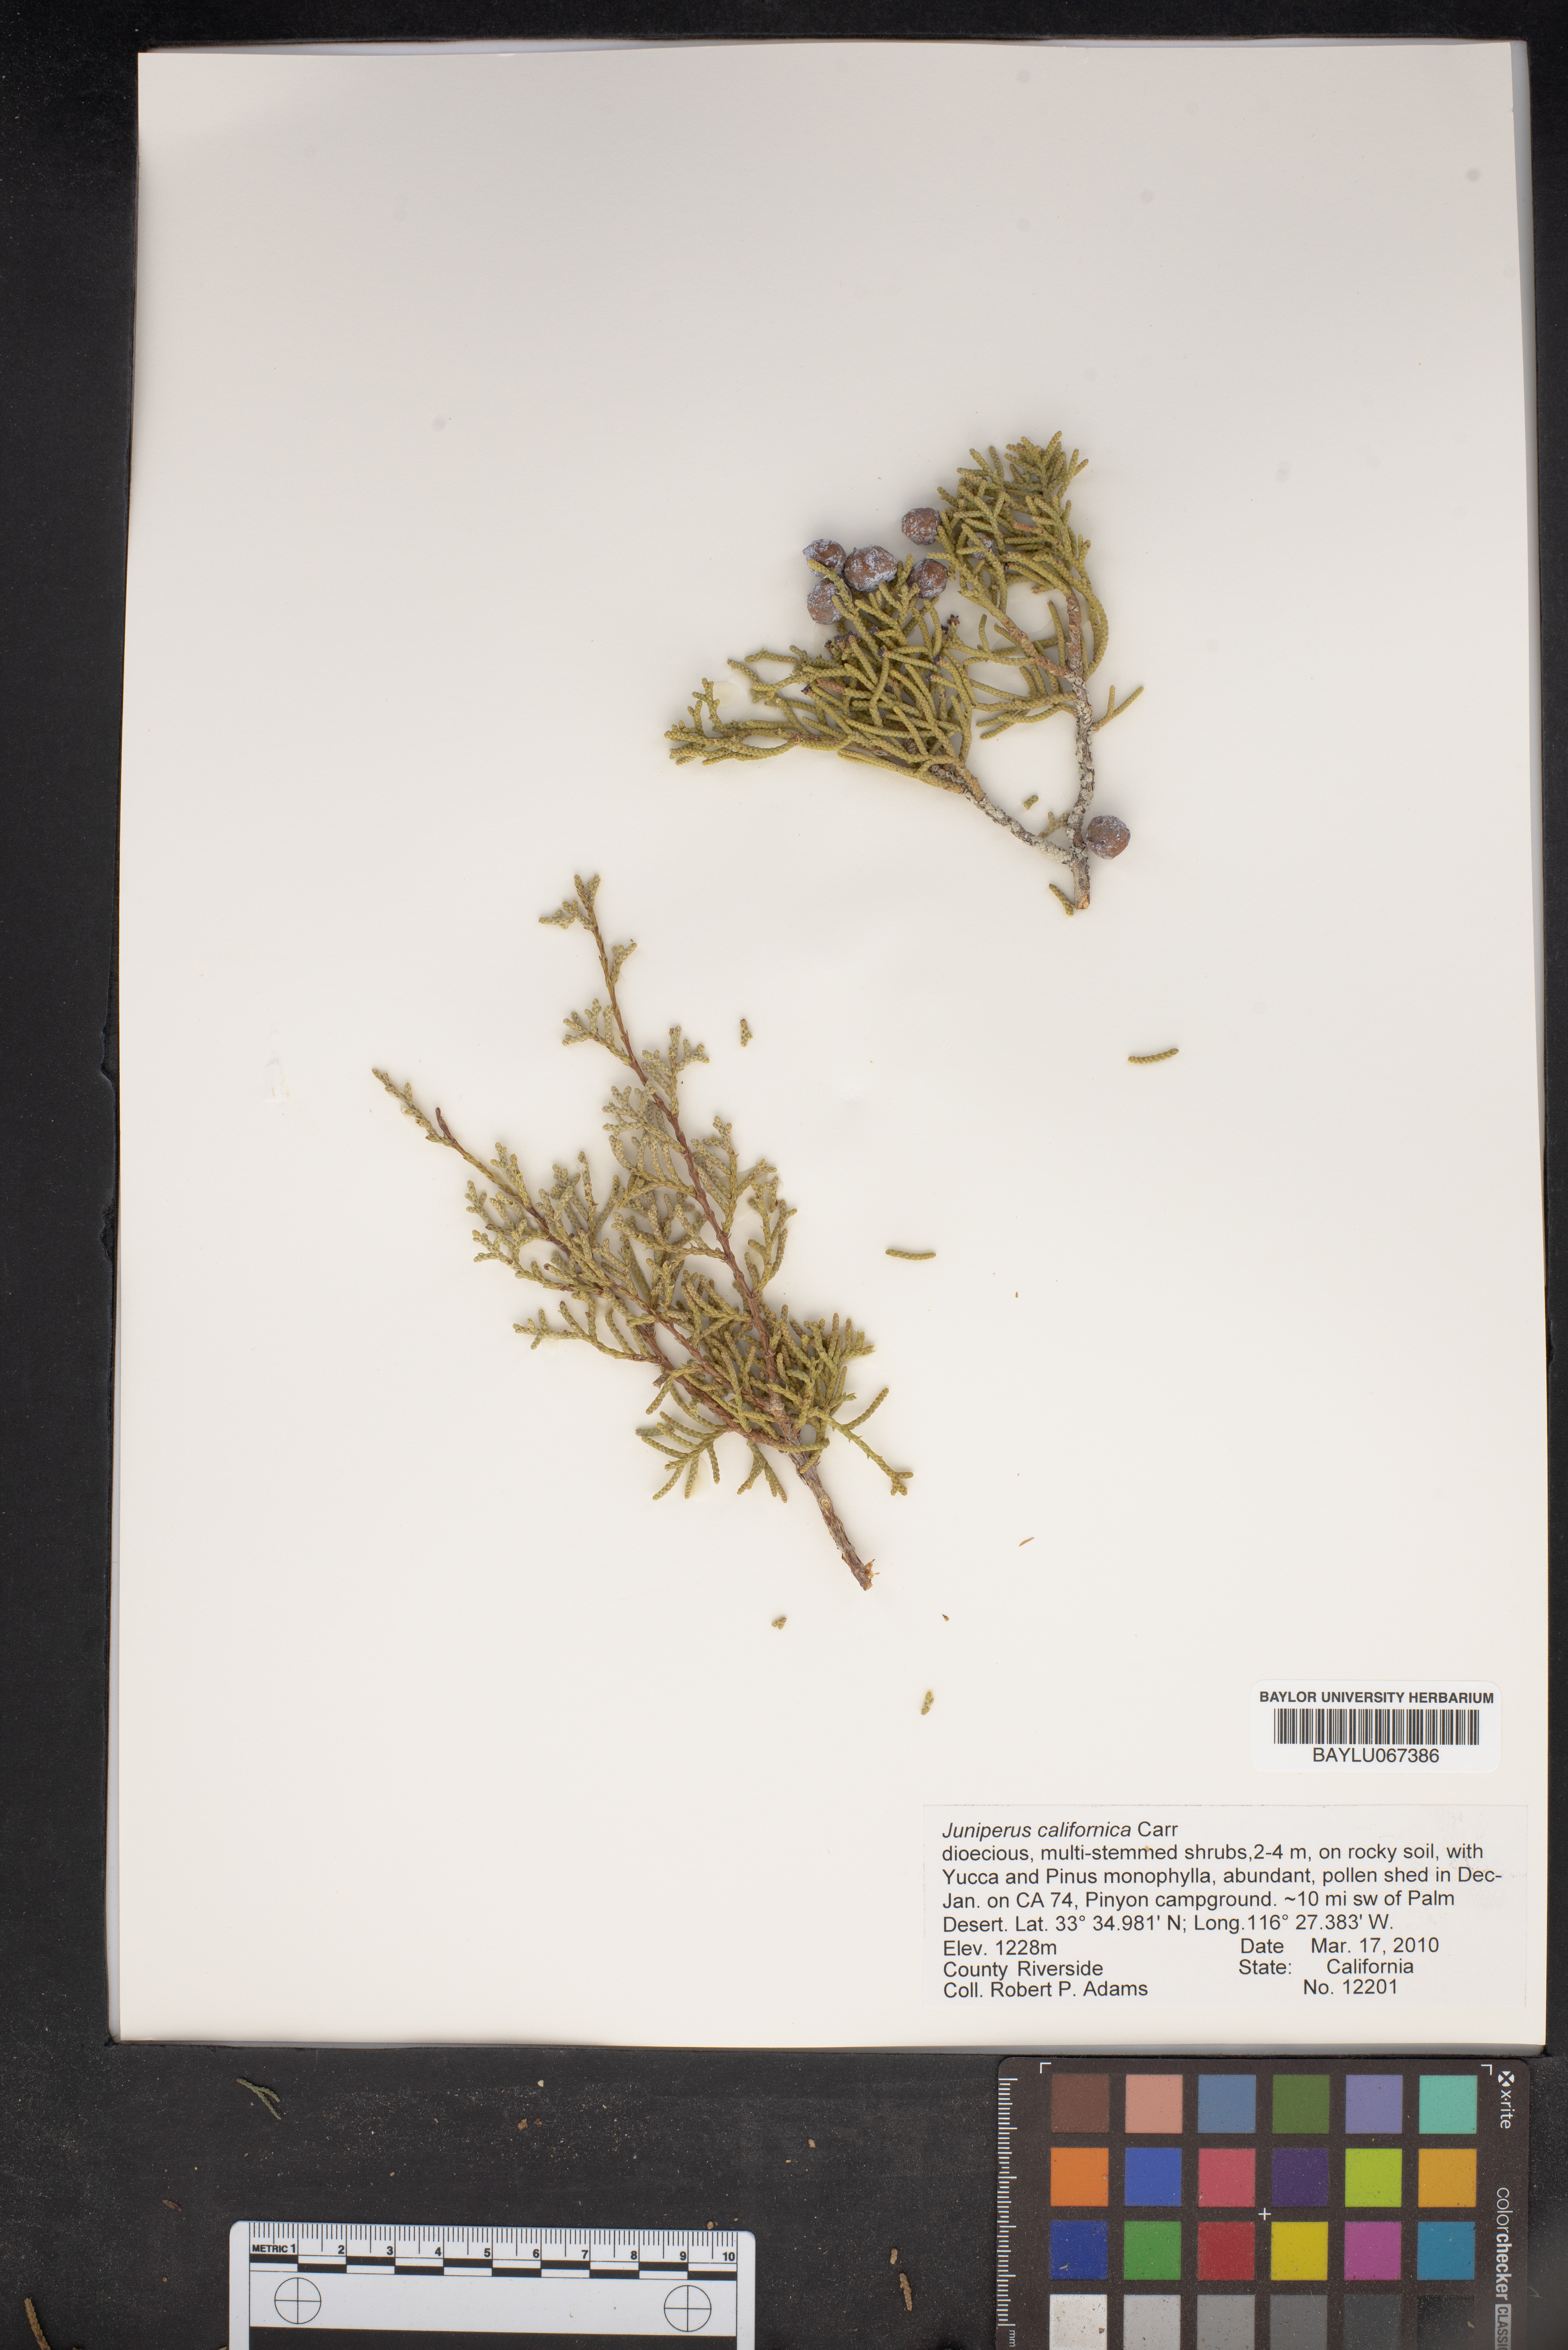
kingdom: Plantae
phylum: Tracheophyta
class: Pinopsida
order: Pinales
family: Cupressaceae
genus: Juniperus
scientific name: Juniperus californica
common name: California juniper
